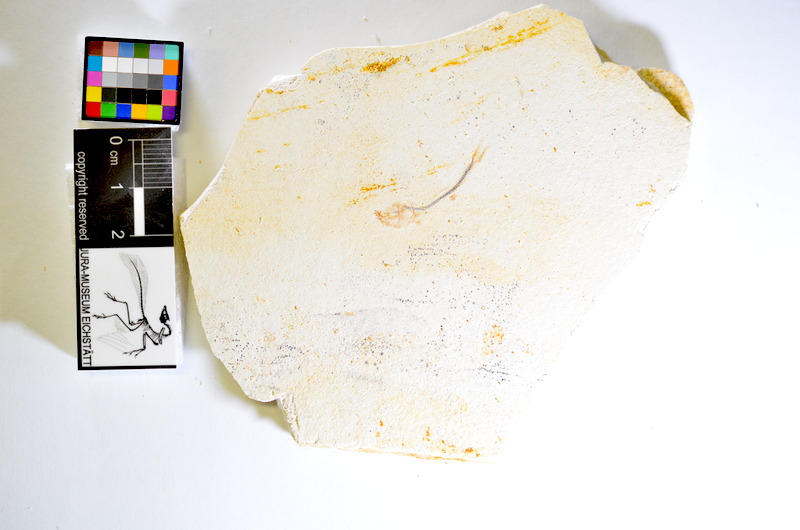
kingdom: Animalia
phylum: Chordata
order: Salmoniformes
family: Orthogonikleithridae
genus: Orthogonikleithrus
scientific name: Orthogonikleithrus hoelli
